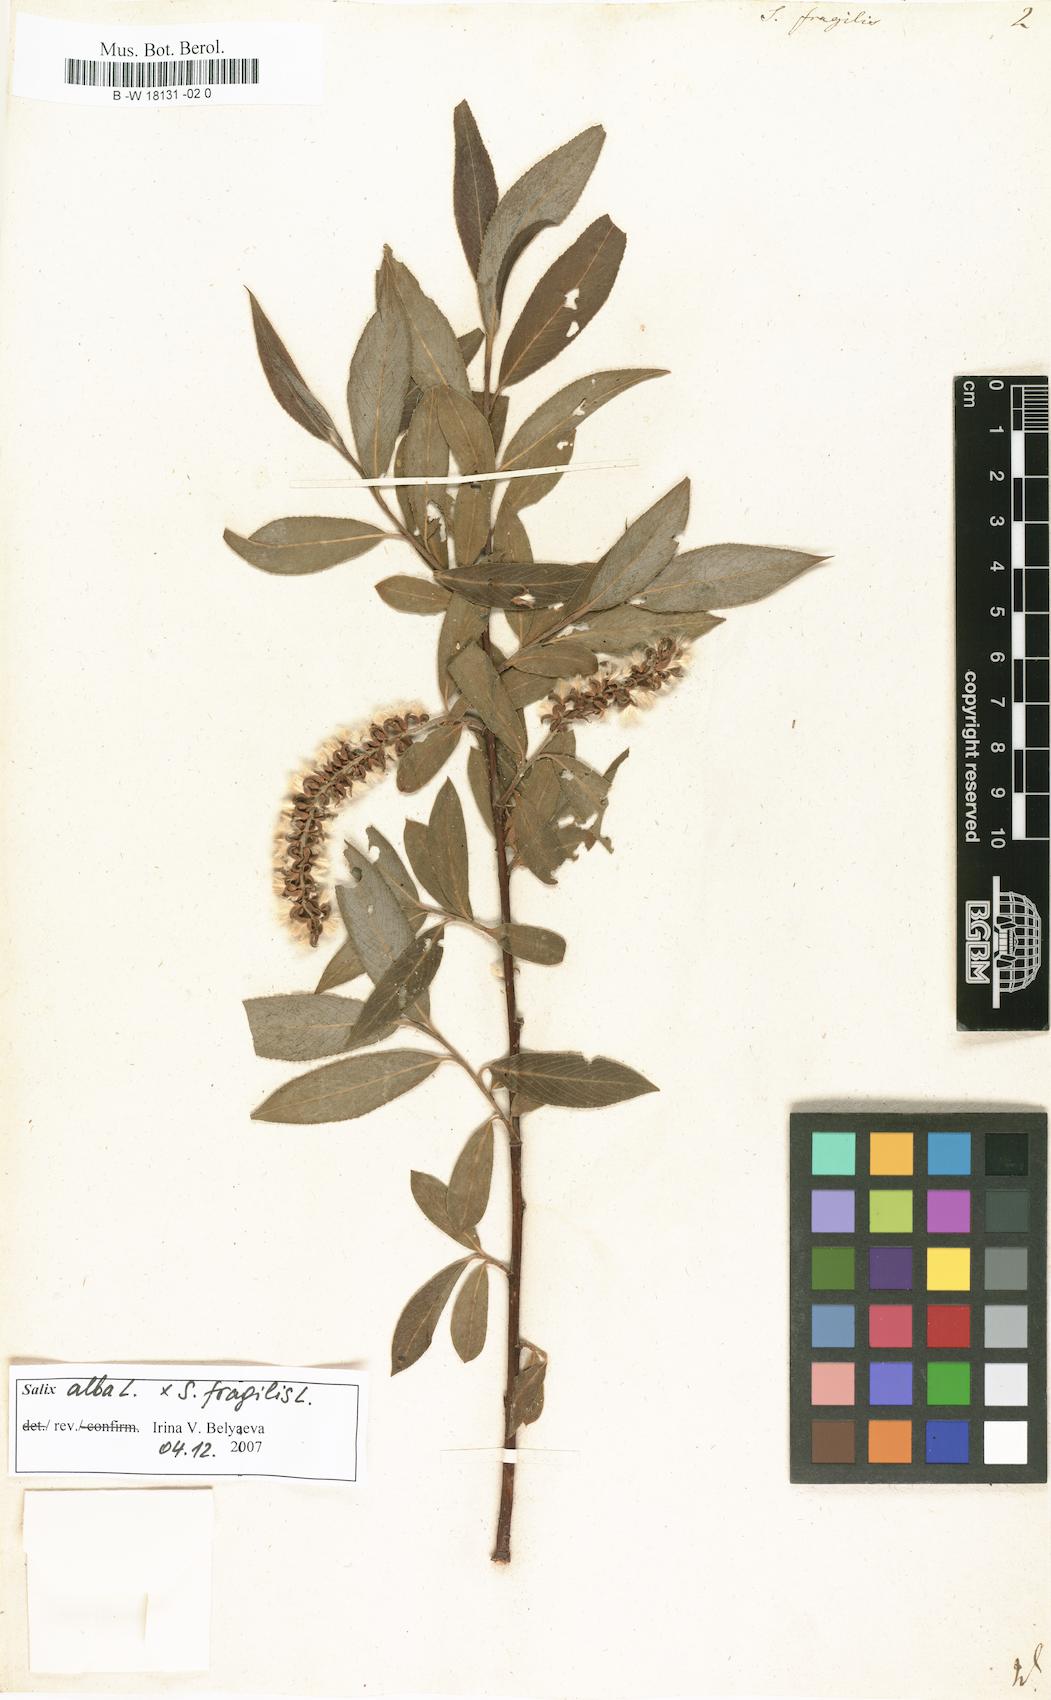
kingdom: Plantae
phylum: Tracheophyta
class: Magnoliopsida
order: Malpighiales
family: Salicaceae
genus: Salix
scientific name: Salix fragilis
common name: Crack willow
